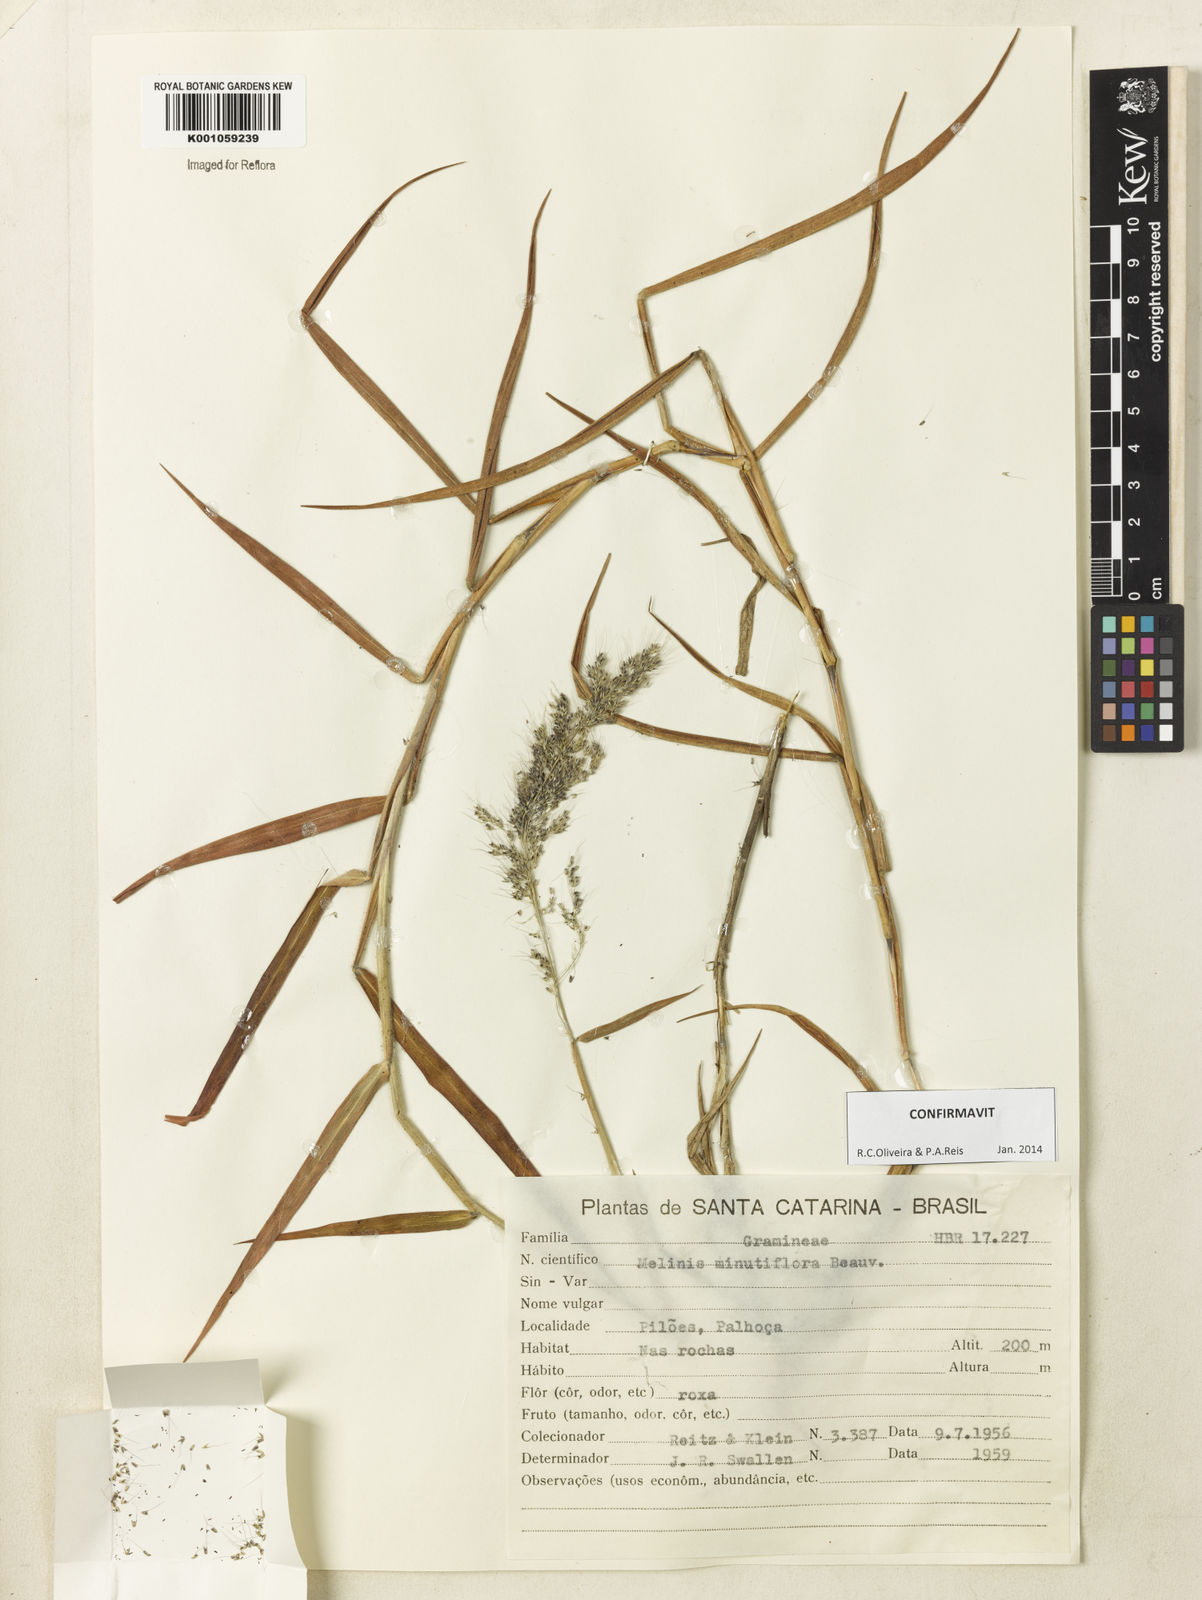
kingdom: Plantae
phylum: Tracheophyta
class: Liliopsida
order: Poales
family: Poaceae
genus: Melinis
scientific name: Melinis minutiflora
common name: Molassesgrass
